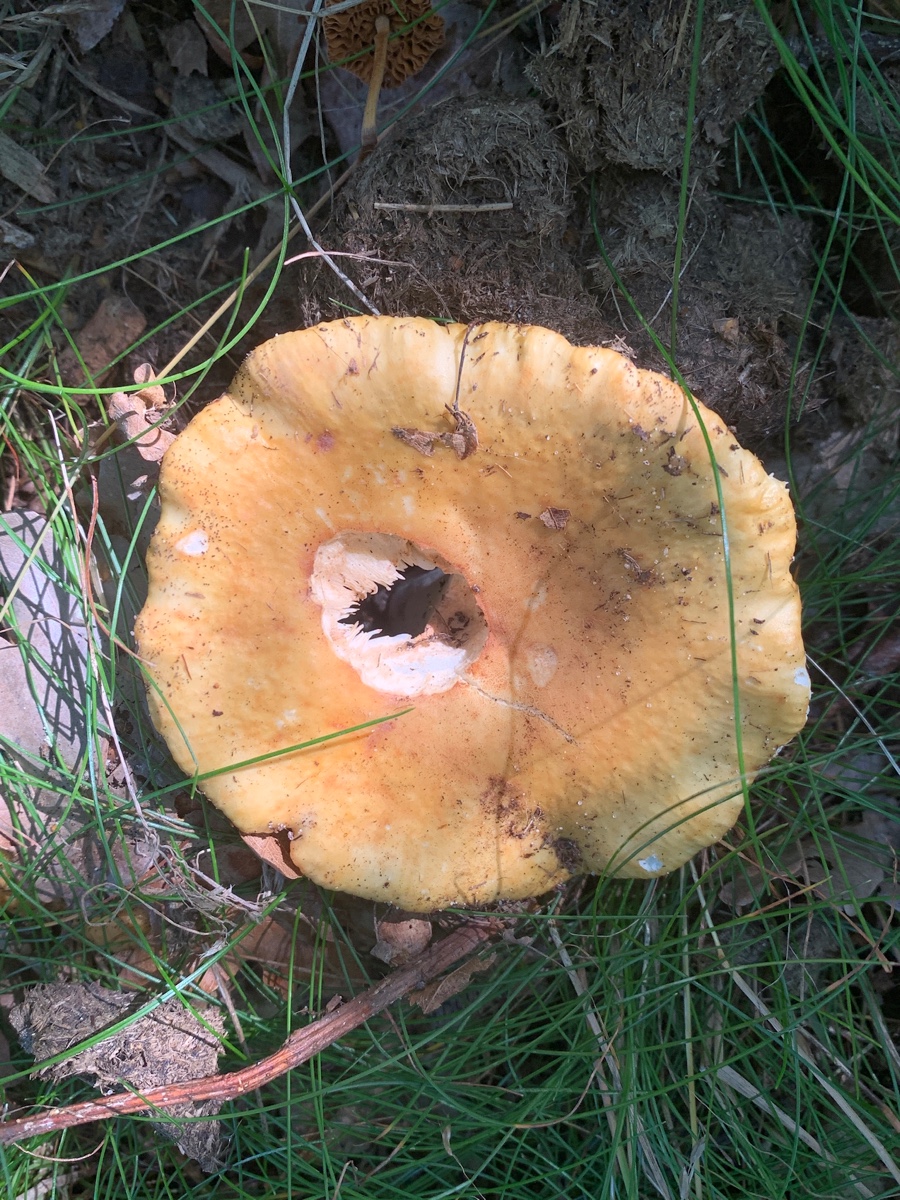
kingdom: Fungi
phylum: Basidiomycota
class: Agaricomycetes
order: Russulales
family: Russulaceae
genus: Russula
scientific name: Russula ochroleuca
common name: okkergul skørhat
